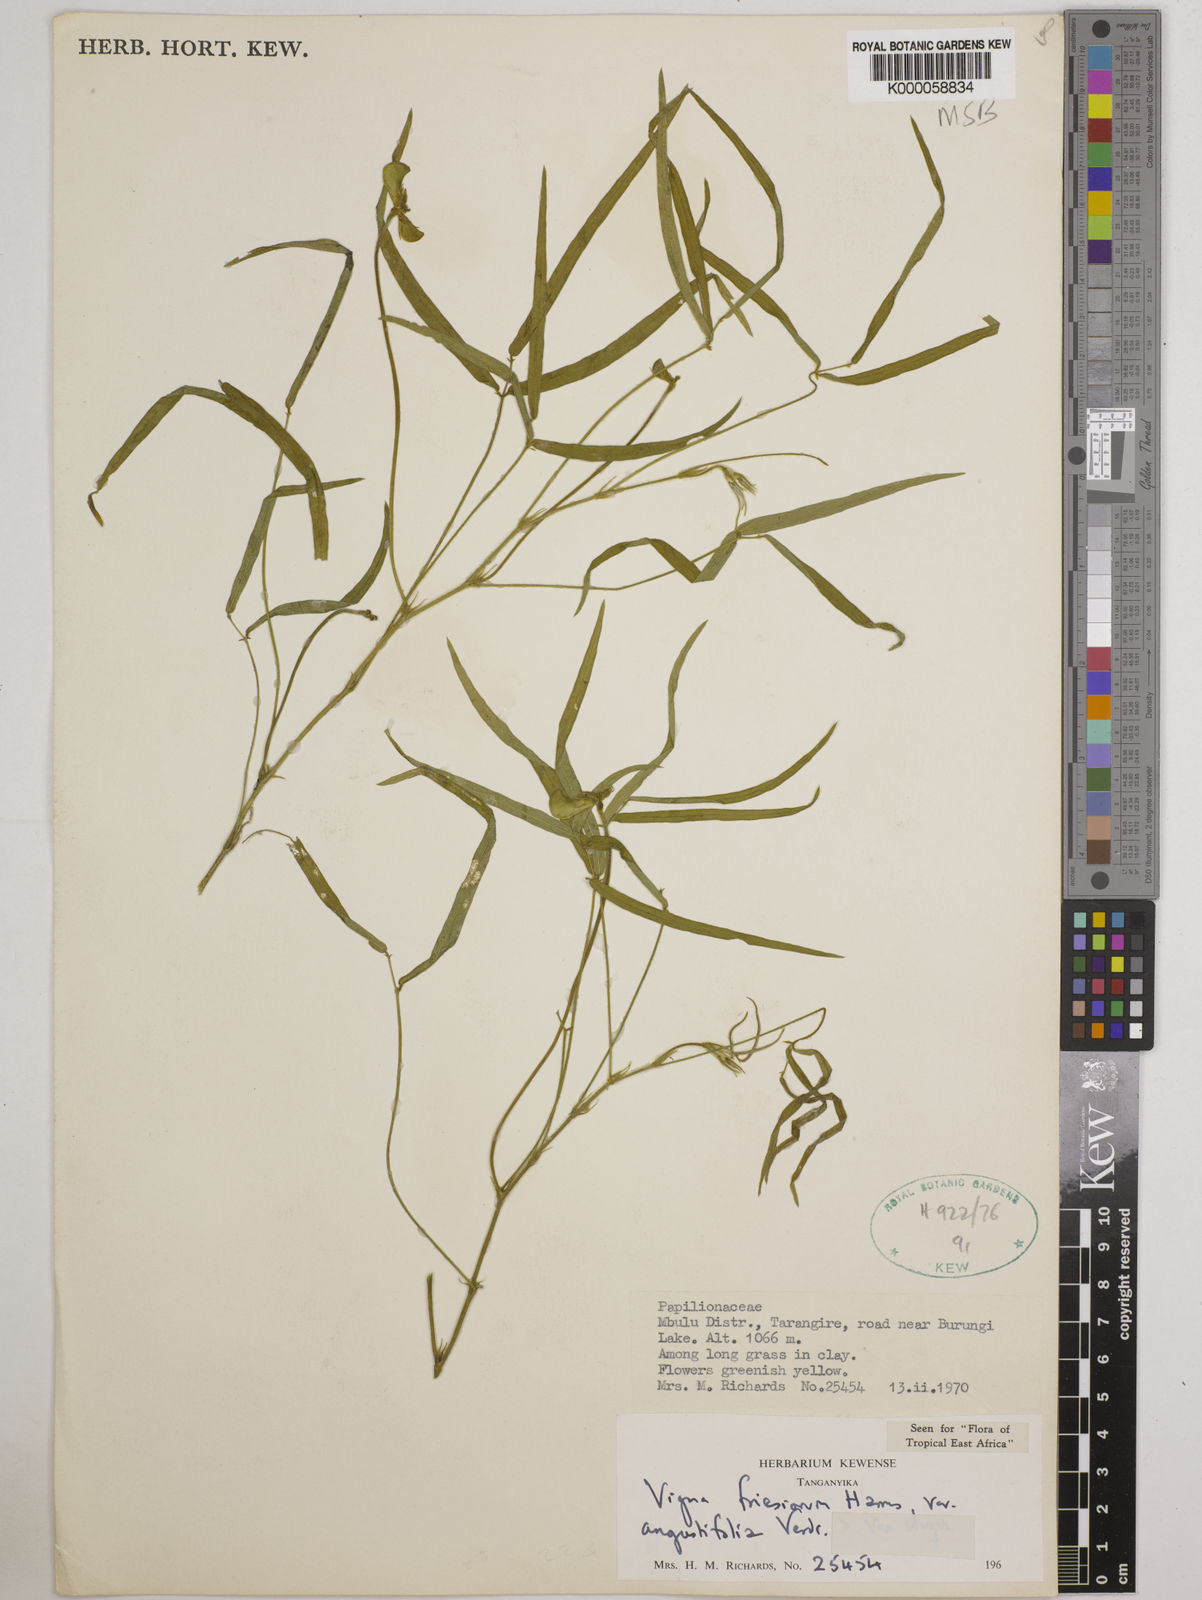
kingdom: Plantae
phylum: Tracheophyta
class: Magnoliopsida
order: Fabales
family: Fabaceae
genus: Vigna
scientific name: Vigna
